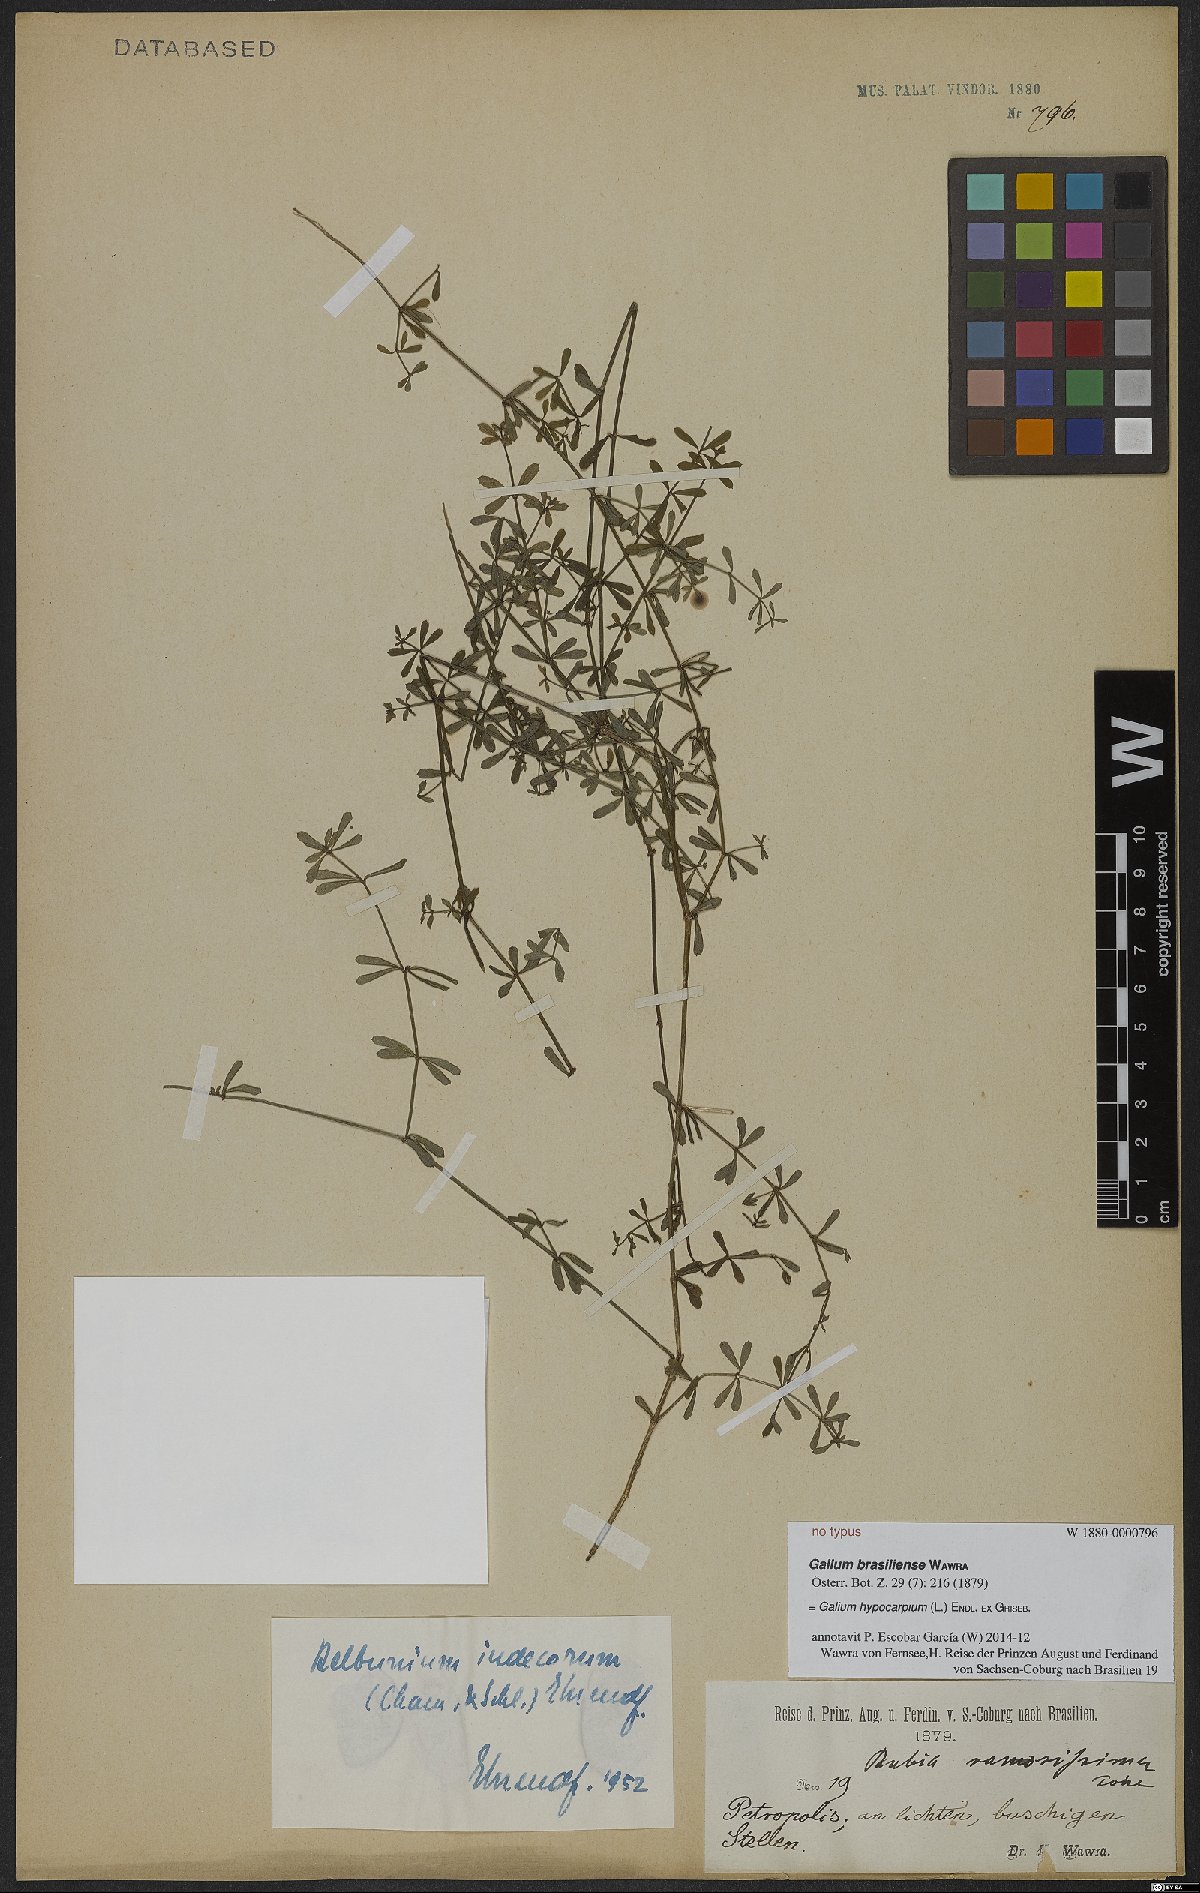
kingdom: Plantae
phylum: Tracheophyta
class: Magnoliopsida
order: Gentianales
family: Rubiaceae
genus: Galium
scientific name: Galium hypocarpium
